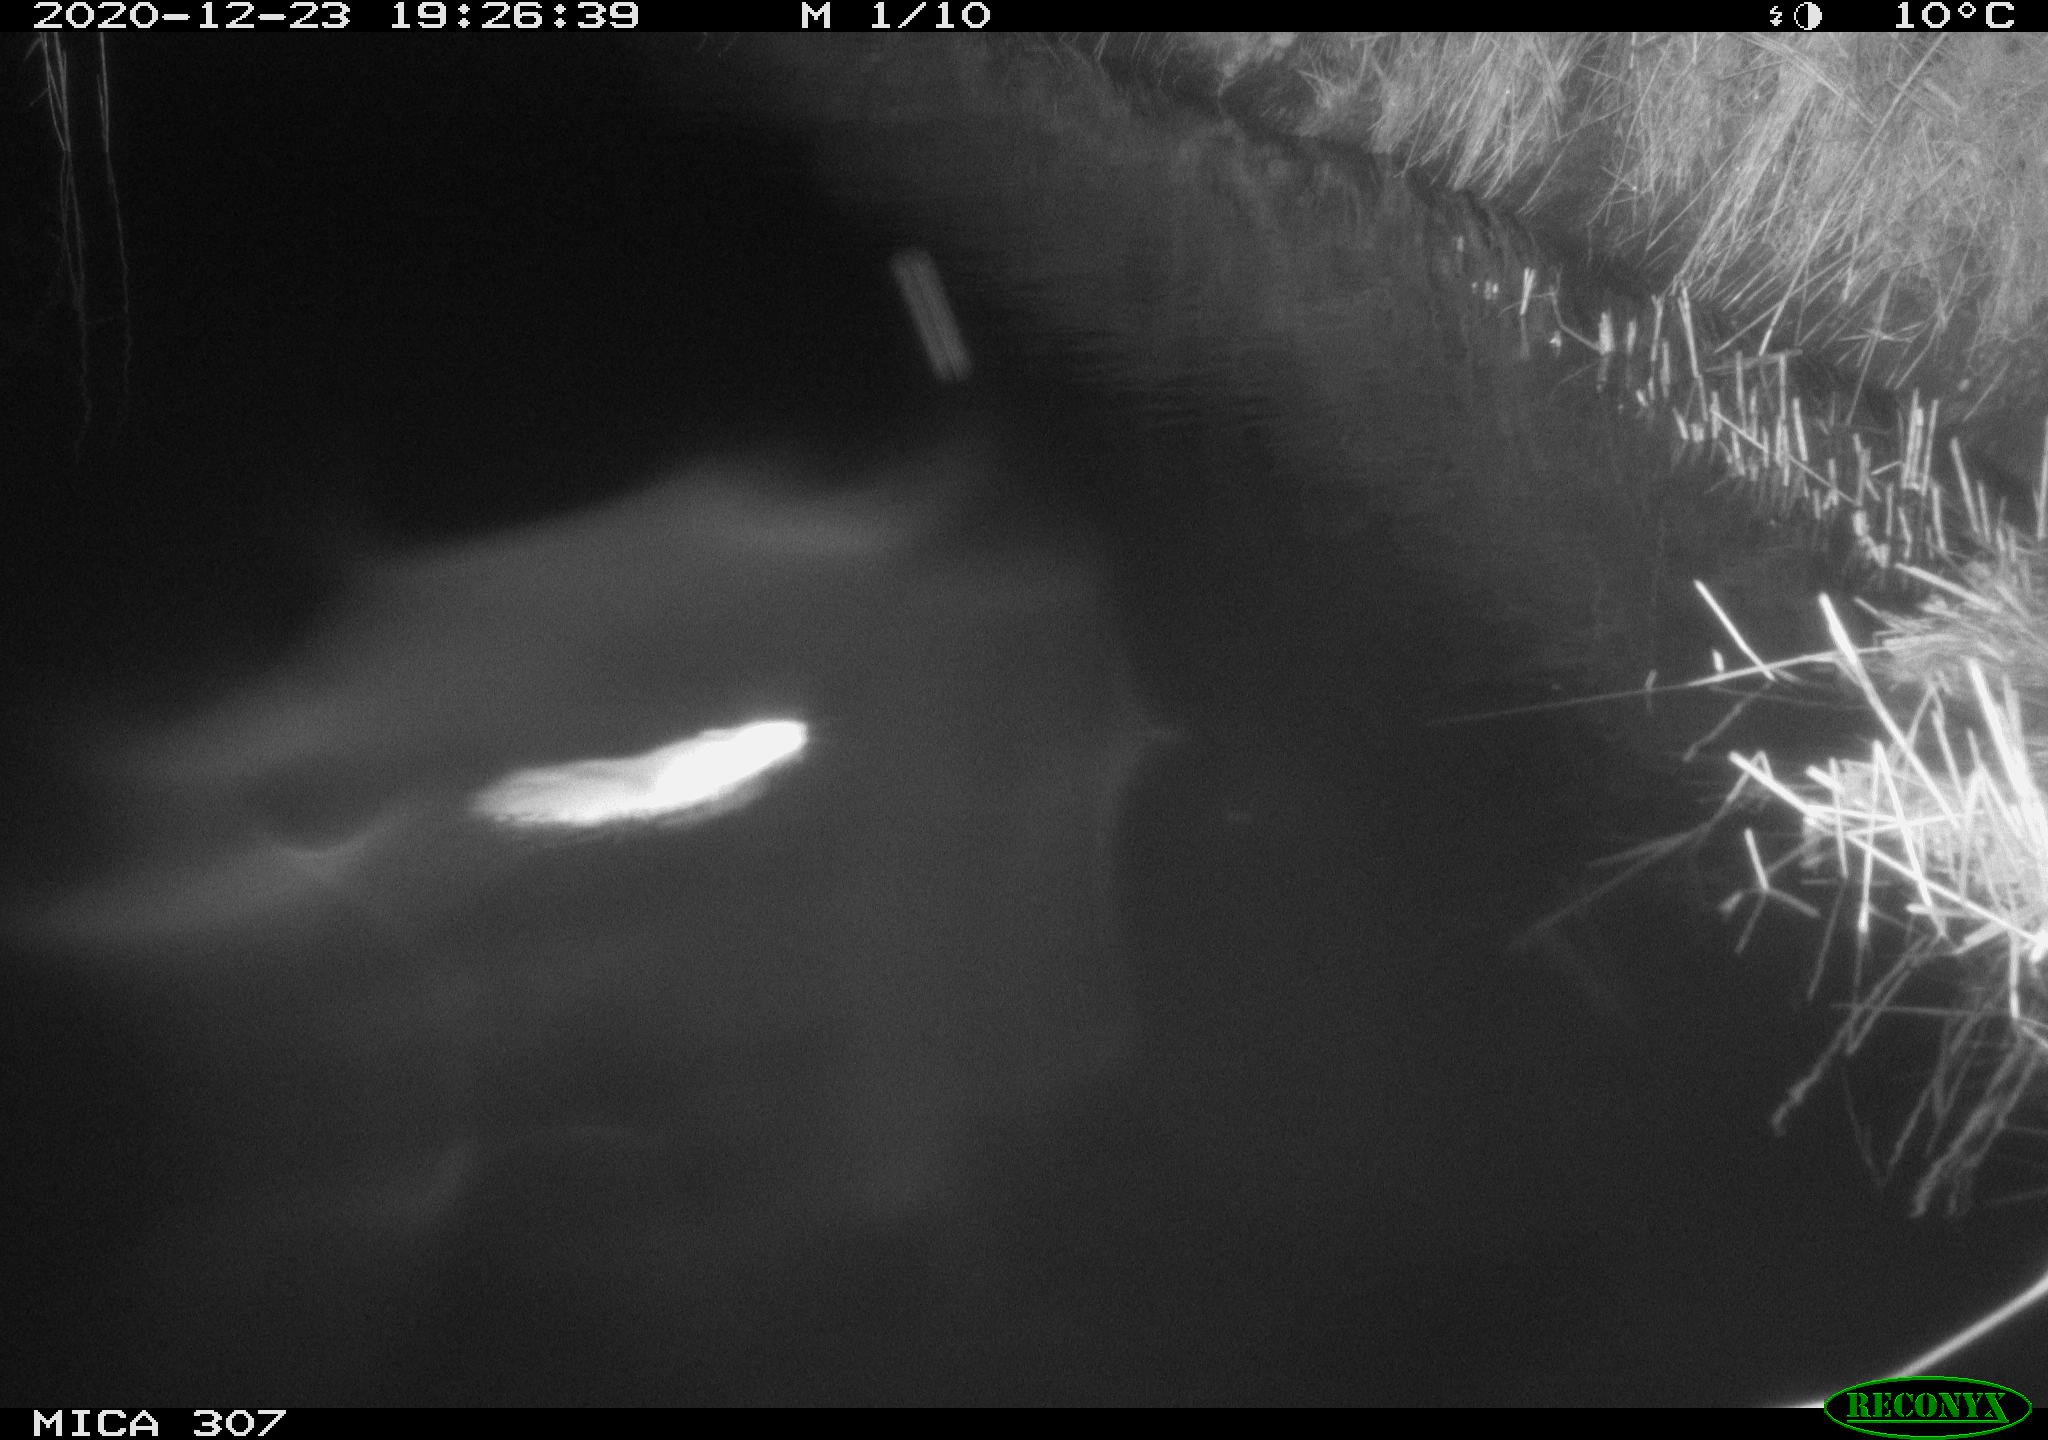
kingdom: Animalia
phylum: Chordata
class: Mammalia
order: Rodentia
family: Muridae
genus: Rattus
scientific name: Rattus norvegicus
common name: Brown rat
